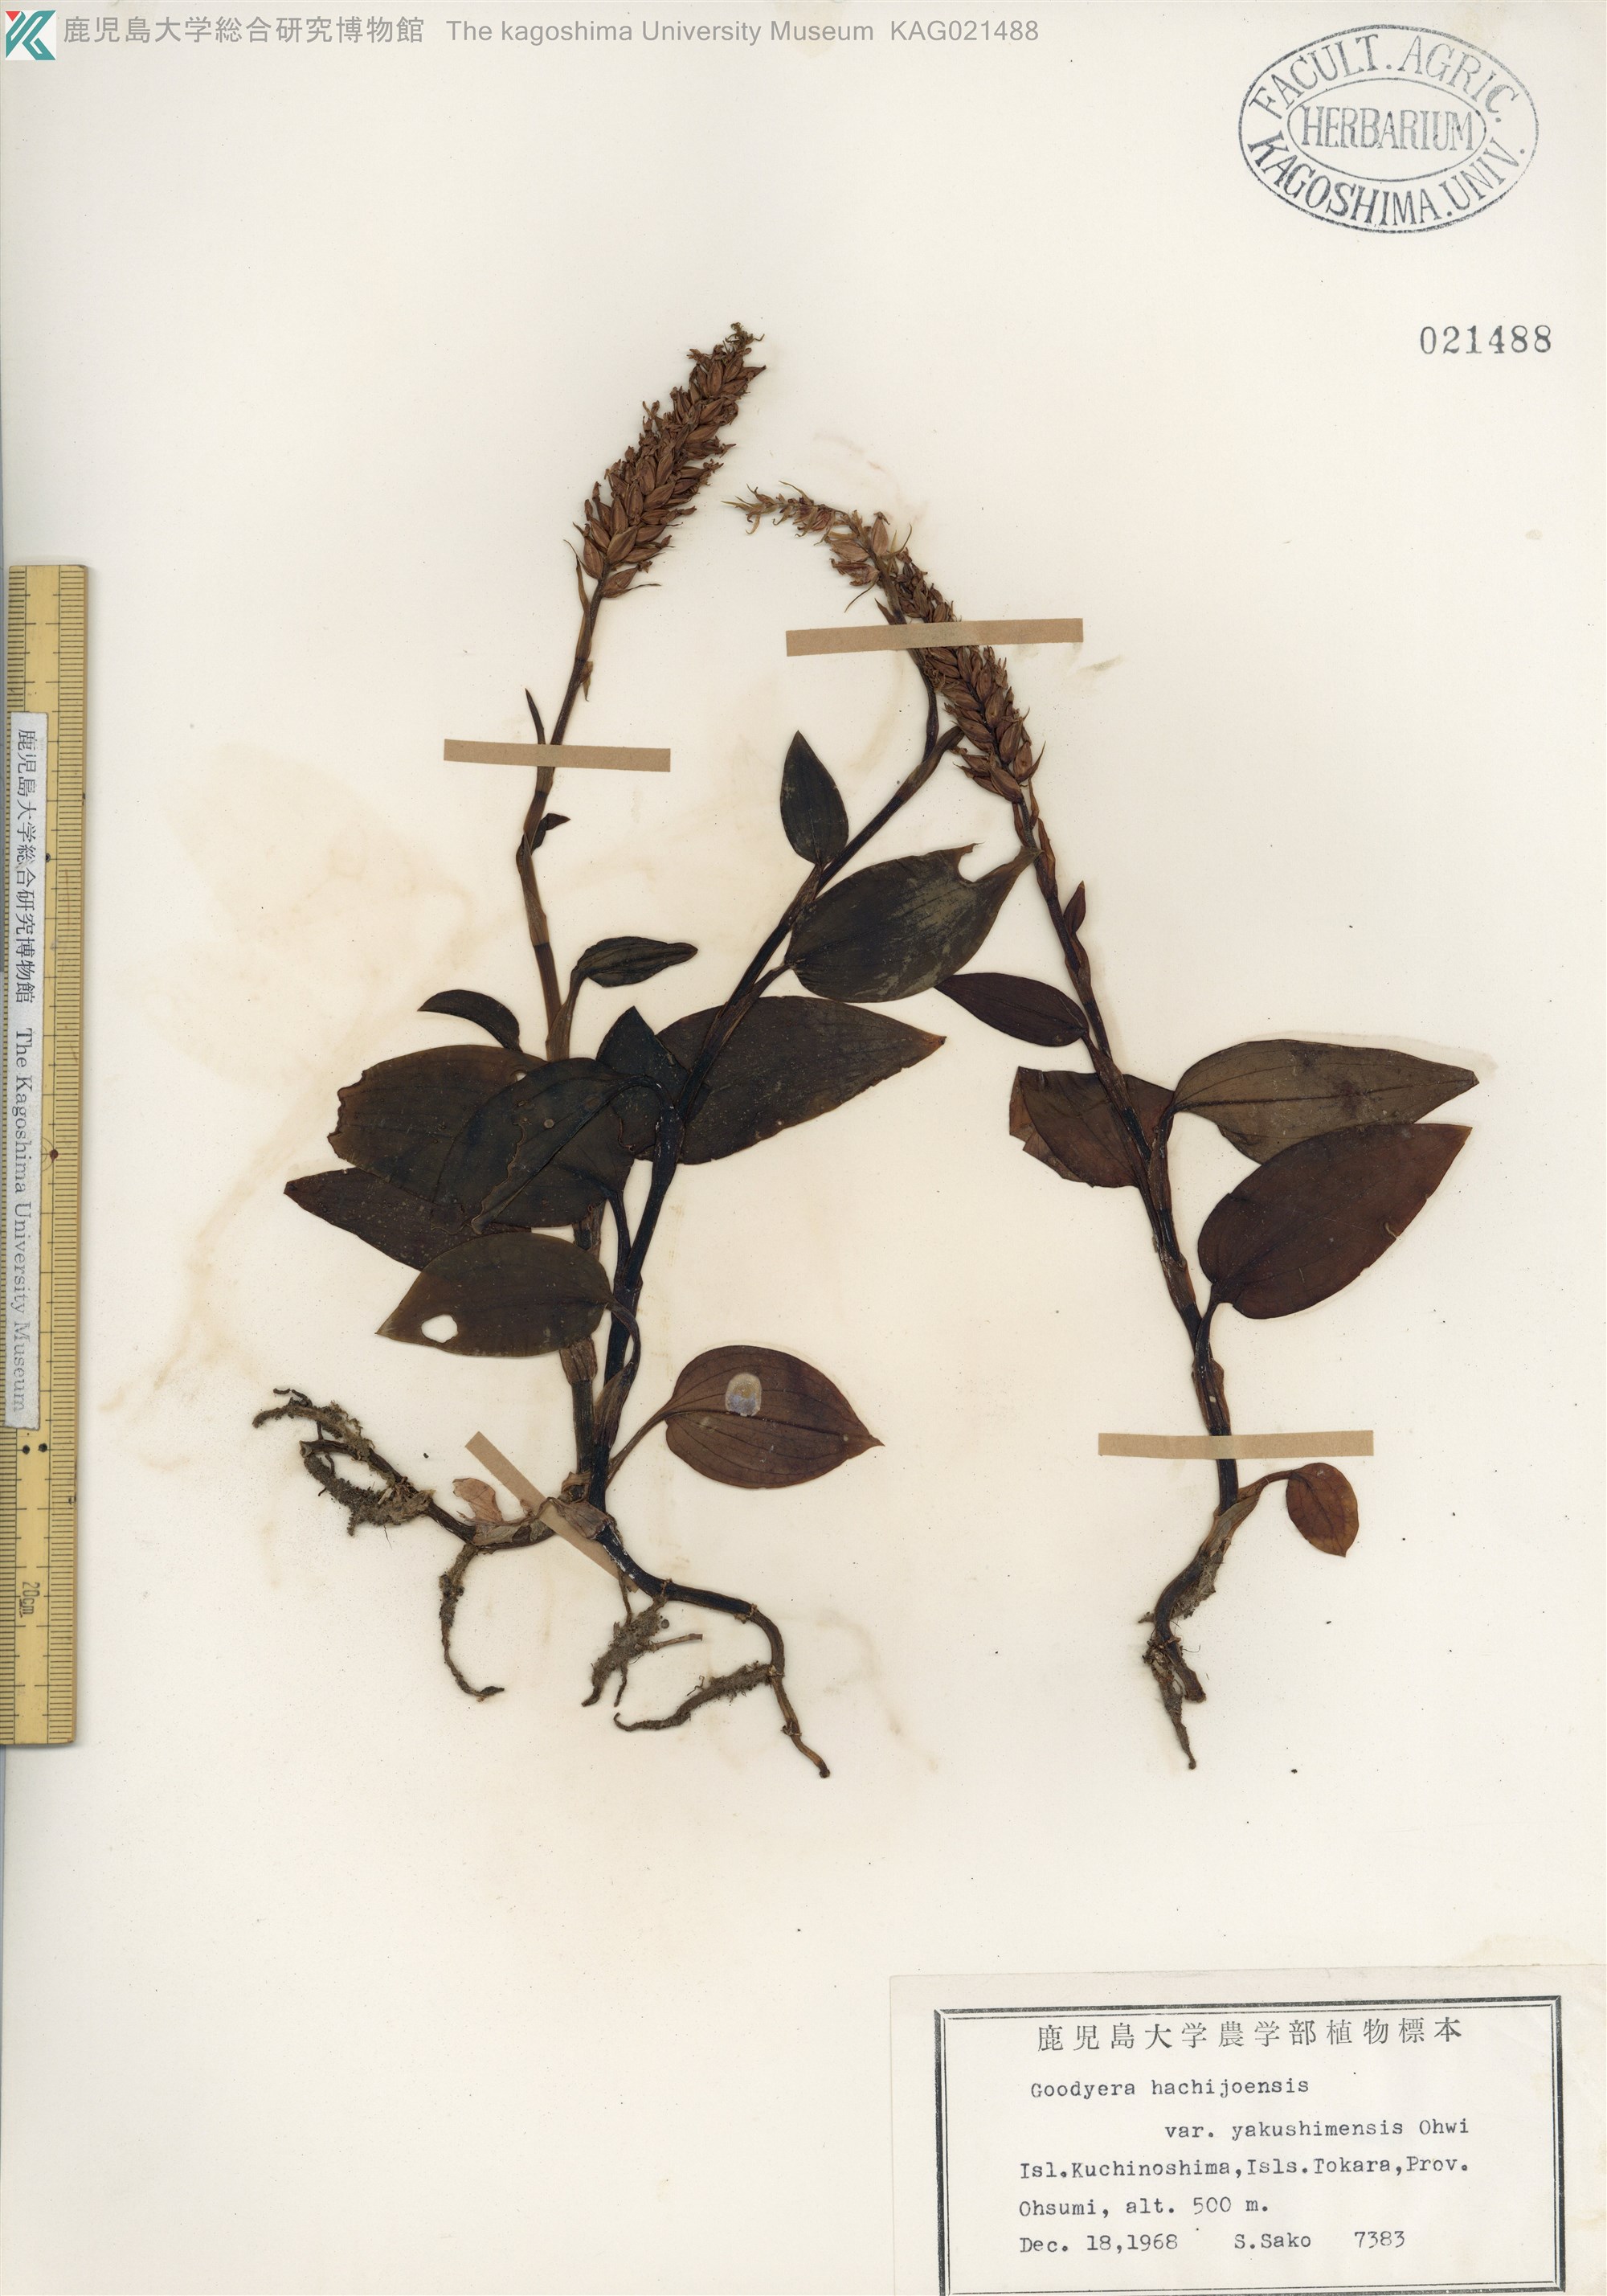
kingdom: Plantae
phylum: Tracheophyta
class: Liliopsida
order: Asparagales
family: Orchidaceae
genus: Goodyera
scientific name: Goodyera hachijoensis
